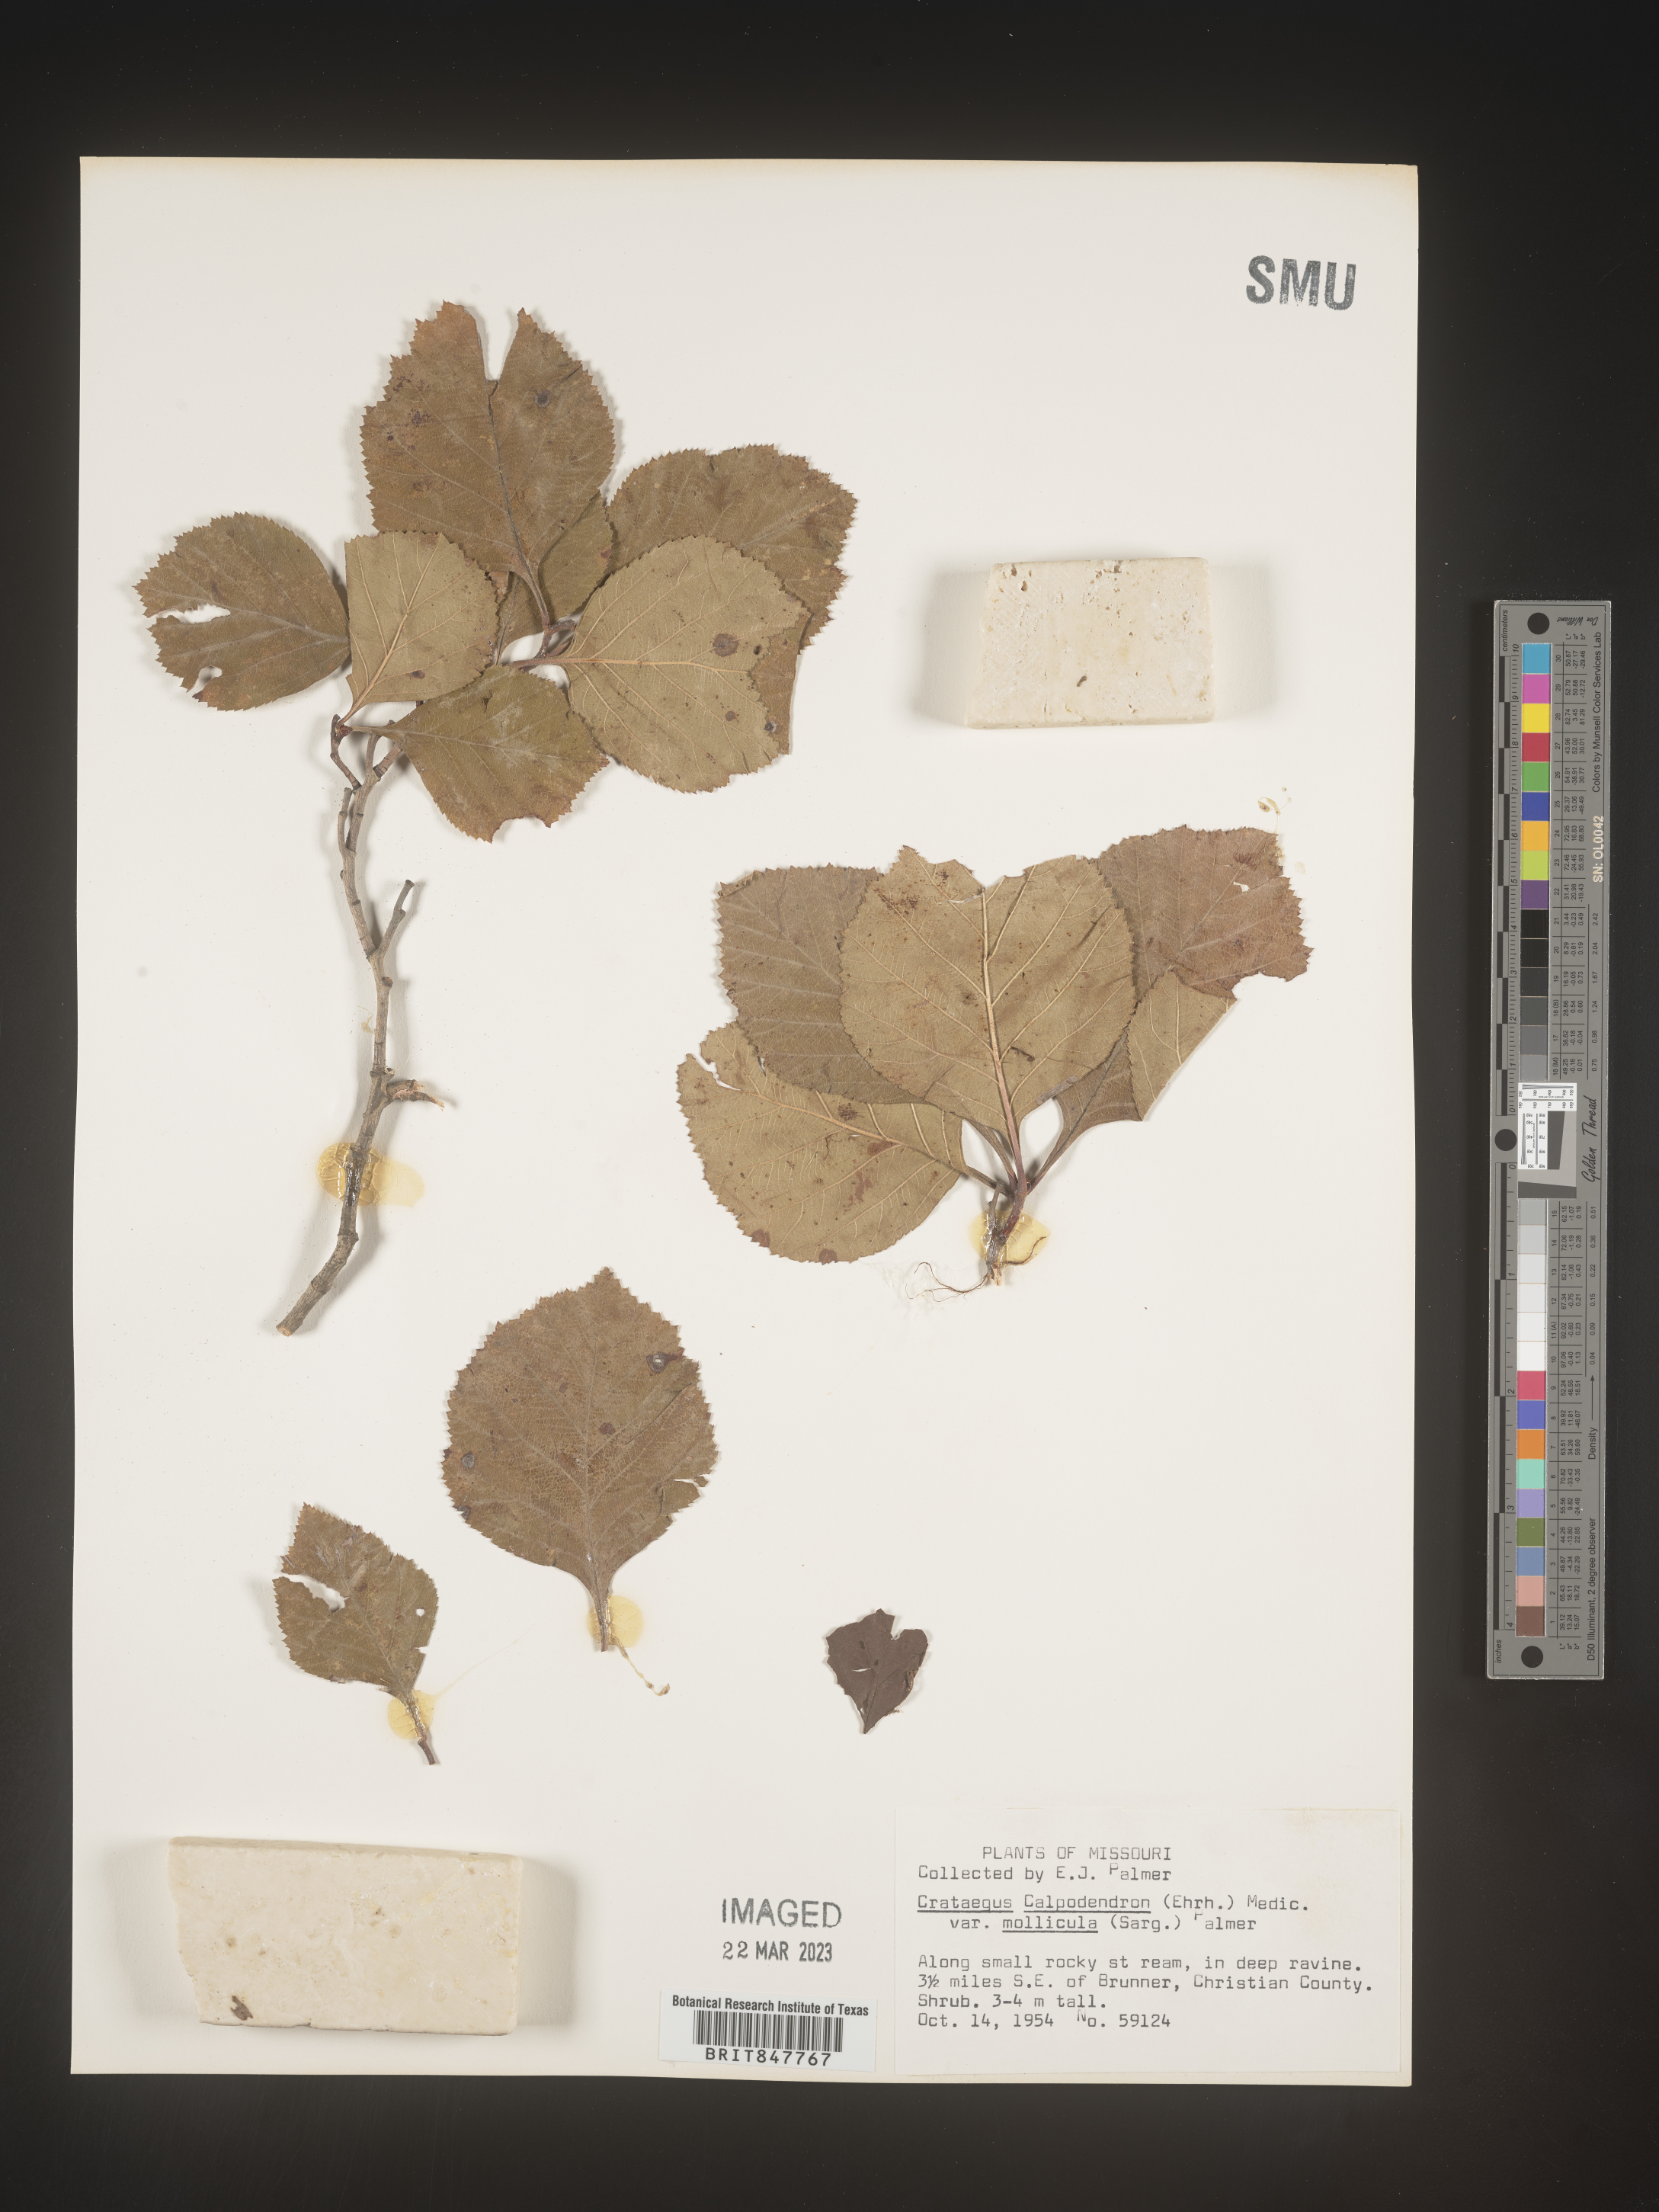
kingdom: Plantae
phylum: Tracheophyta
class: Magnoliopsida
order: Rosales
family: Rosaceae
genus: Crataegus
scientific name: Crataegus calpodendron
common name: Pear hawthorn
